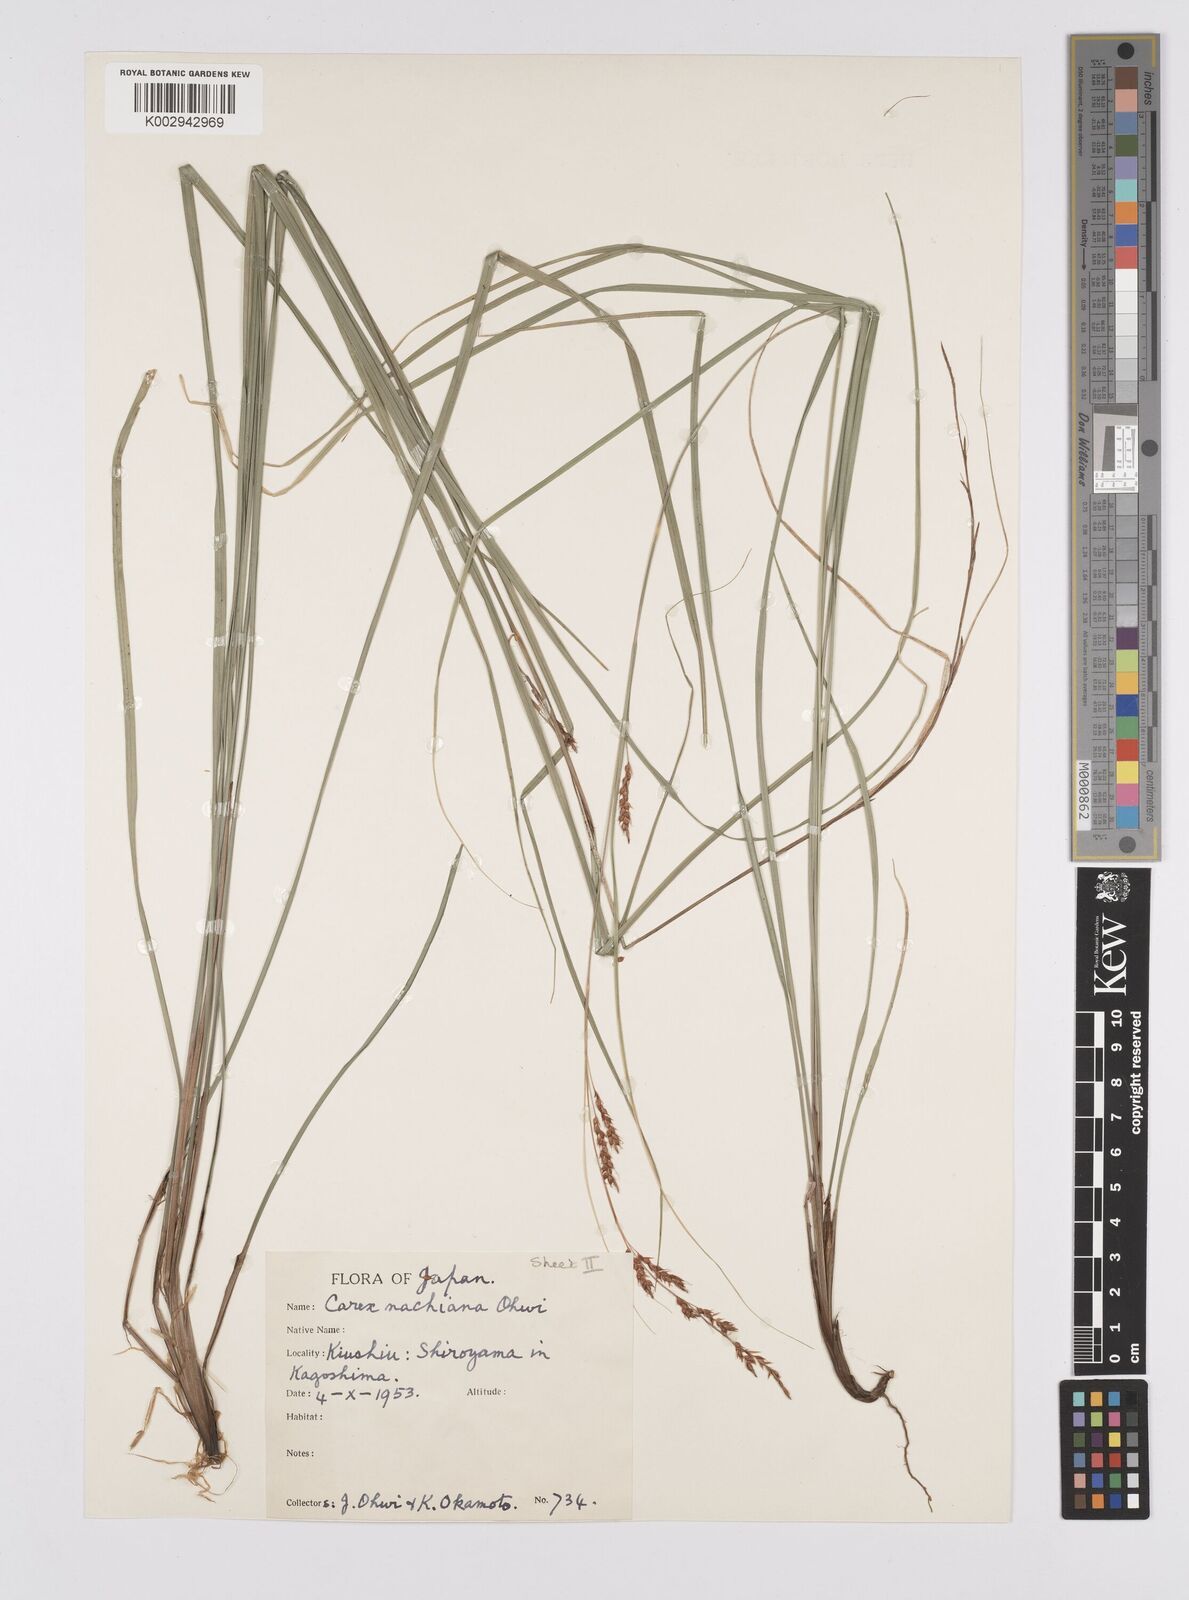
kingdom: Plantae
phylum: Tracheophyta
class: Liliopsida
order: Poales
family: Cyperaceae
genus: Carex
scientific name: Carex nachiana
